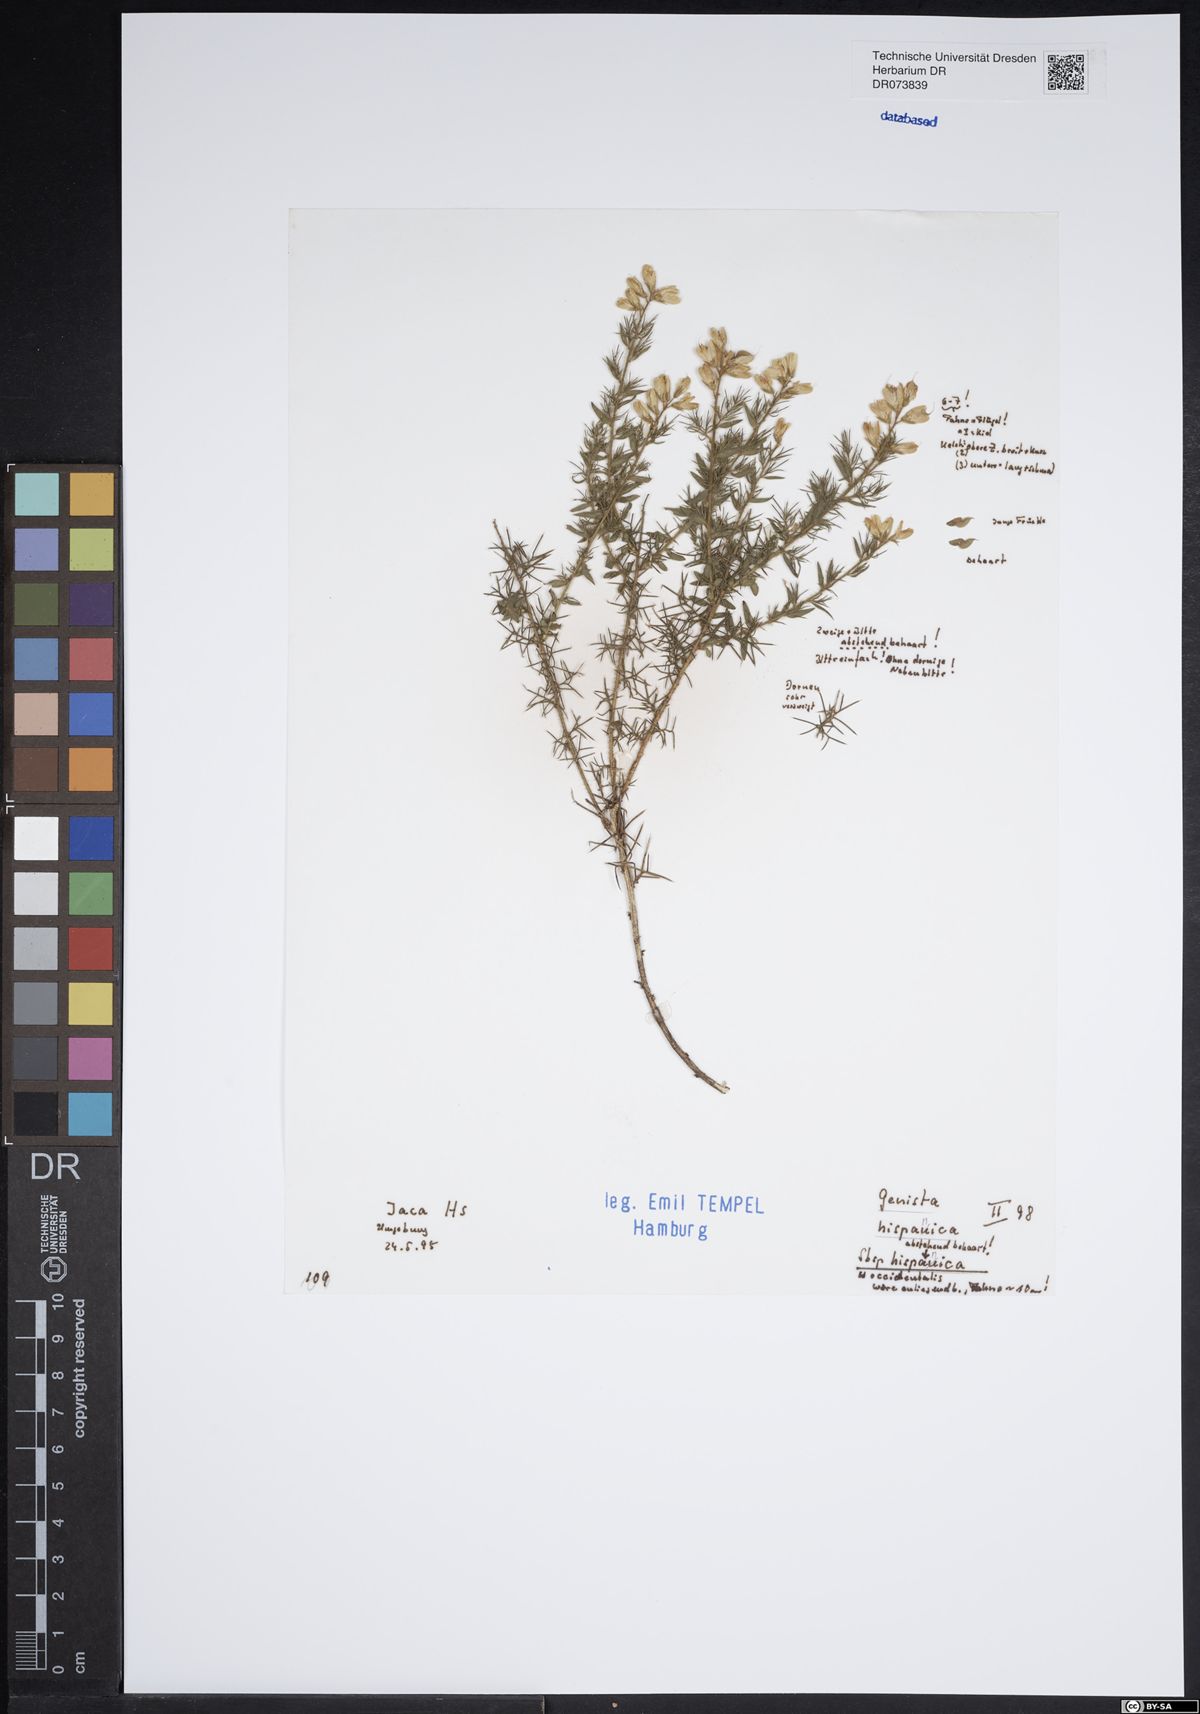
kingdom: Plantae
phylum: Tracheophyta
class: Magnoliopsida
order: Fabales
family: Fabaceae
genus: Genista
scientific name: Genista hispanica
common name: Spanish gorse
